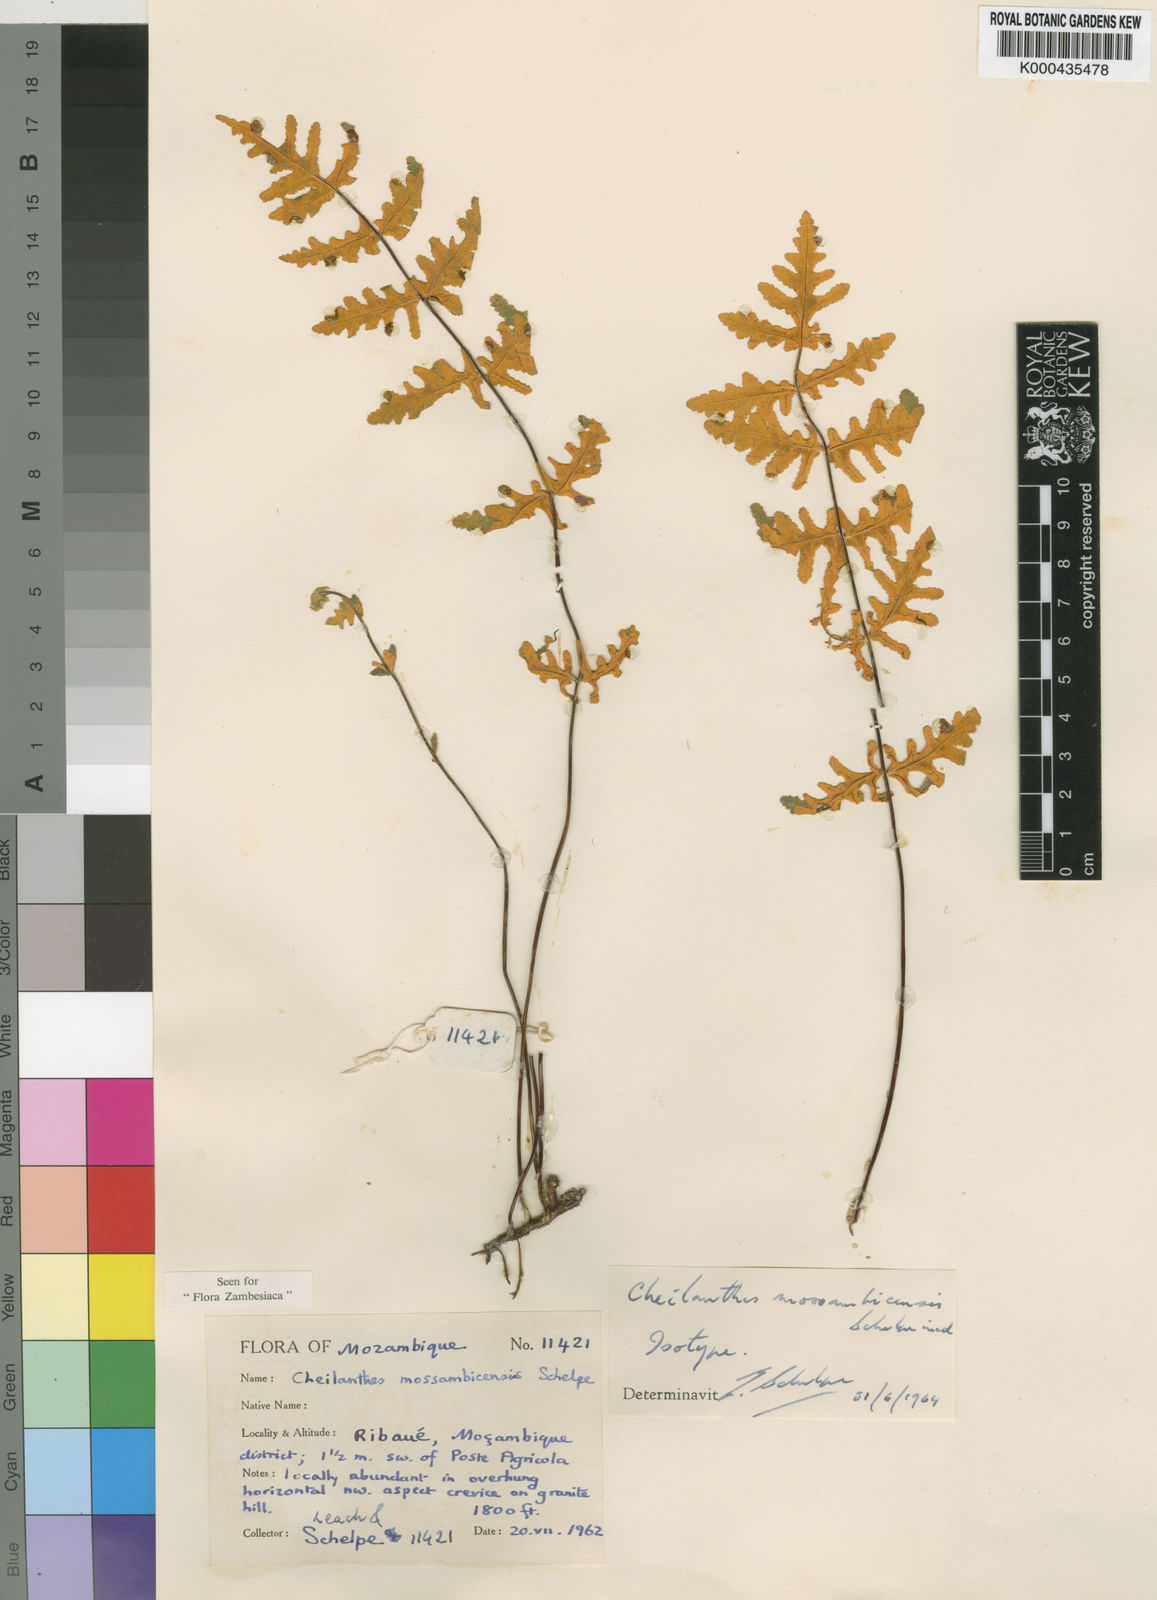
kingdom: Plantae
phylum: Tracheophyta
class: Polypodiopsida
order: Polypodiales
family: Pteridaceae
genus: Aleuritopteris
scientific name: Aleuritopteris welwitschii
